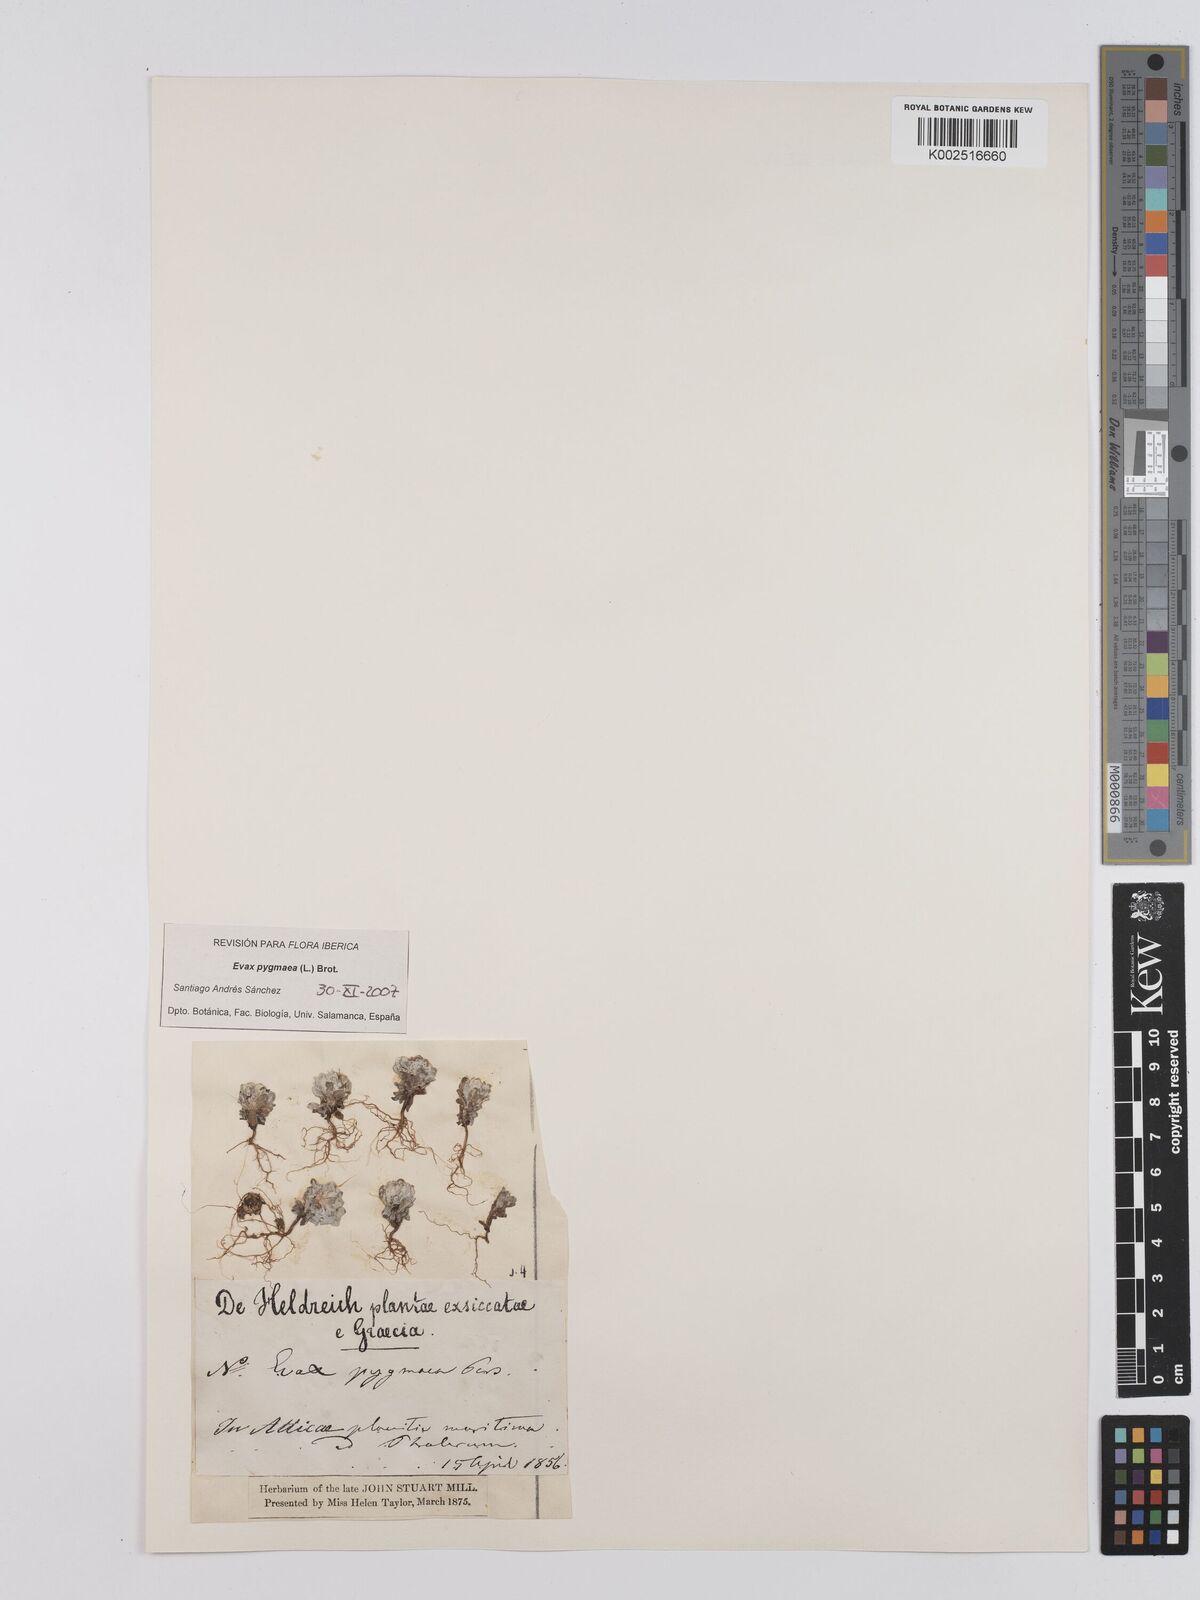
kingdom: Plantae
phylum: Tracheophyta
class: Magnoliopsida
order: Asterales
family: Asteraceae
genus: Filago
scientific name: Filago pygmaea
